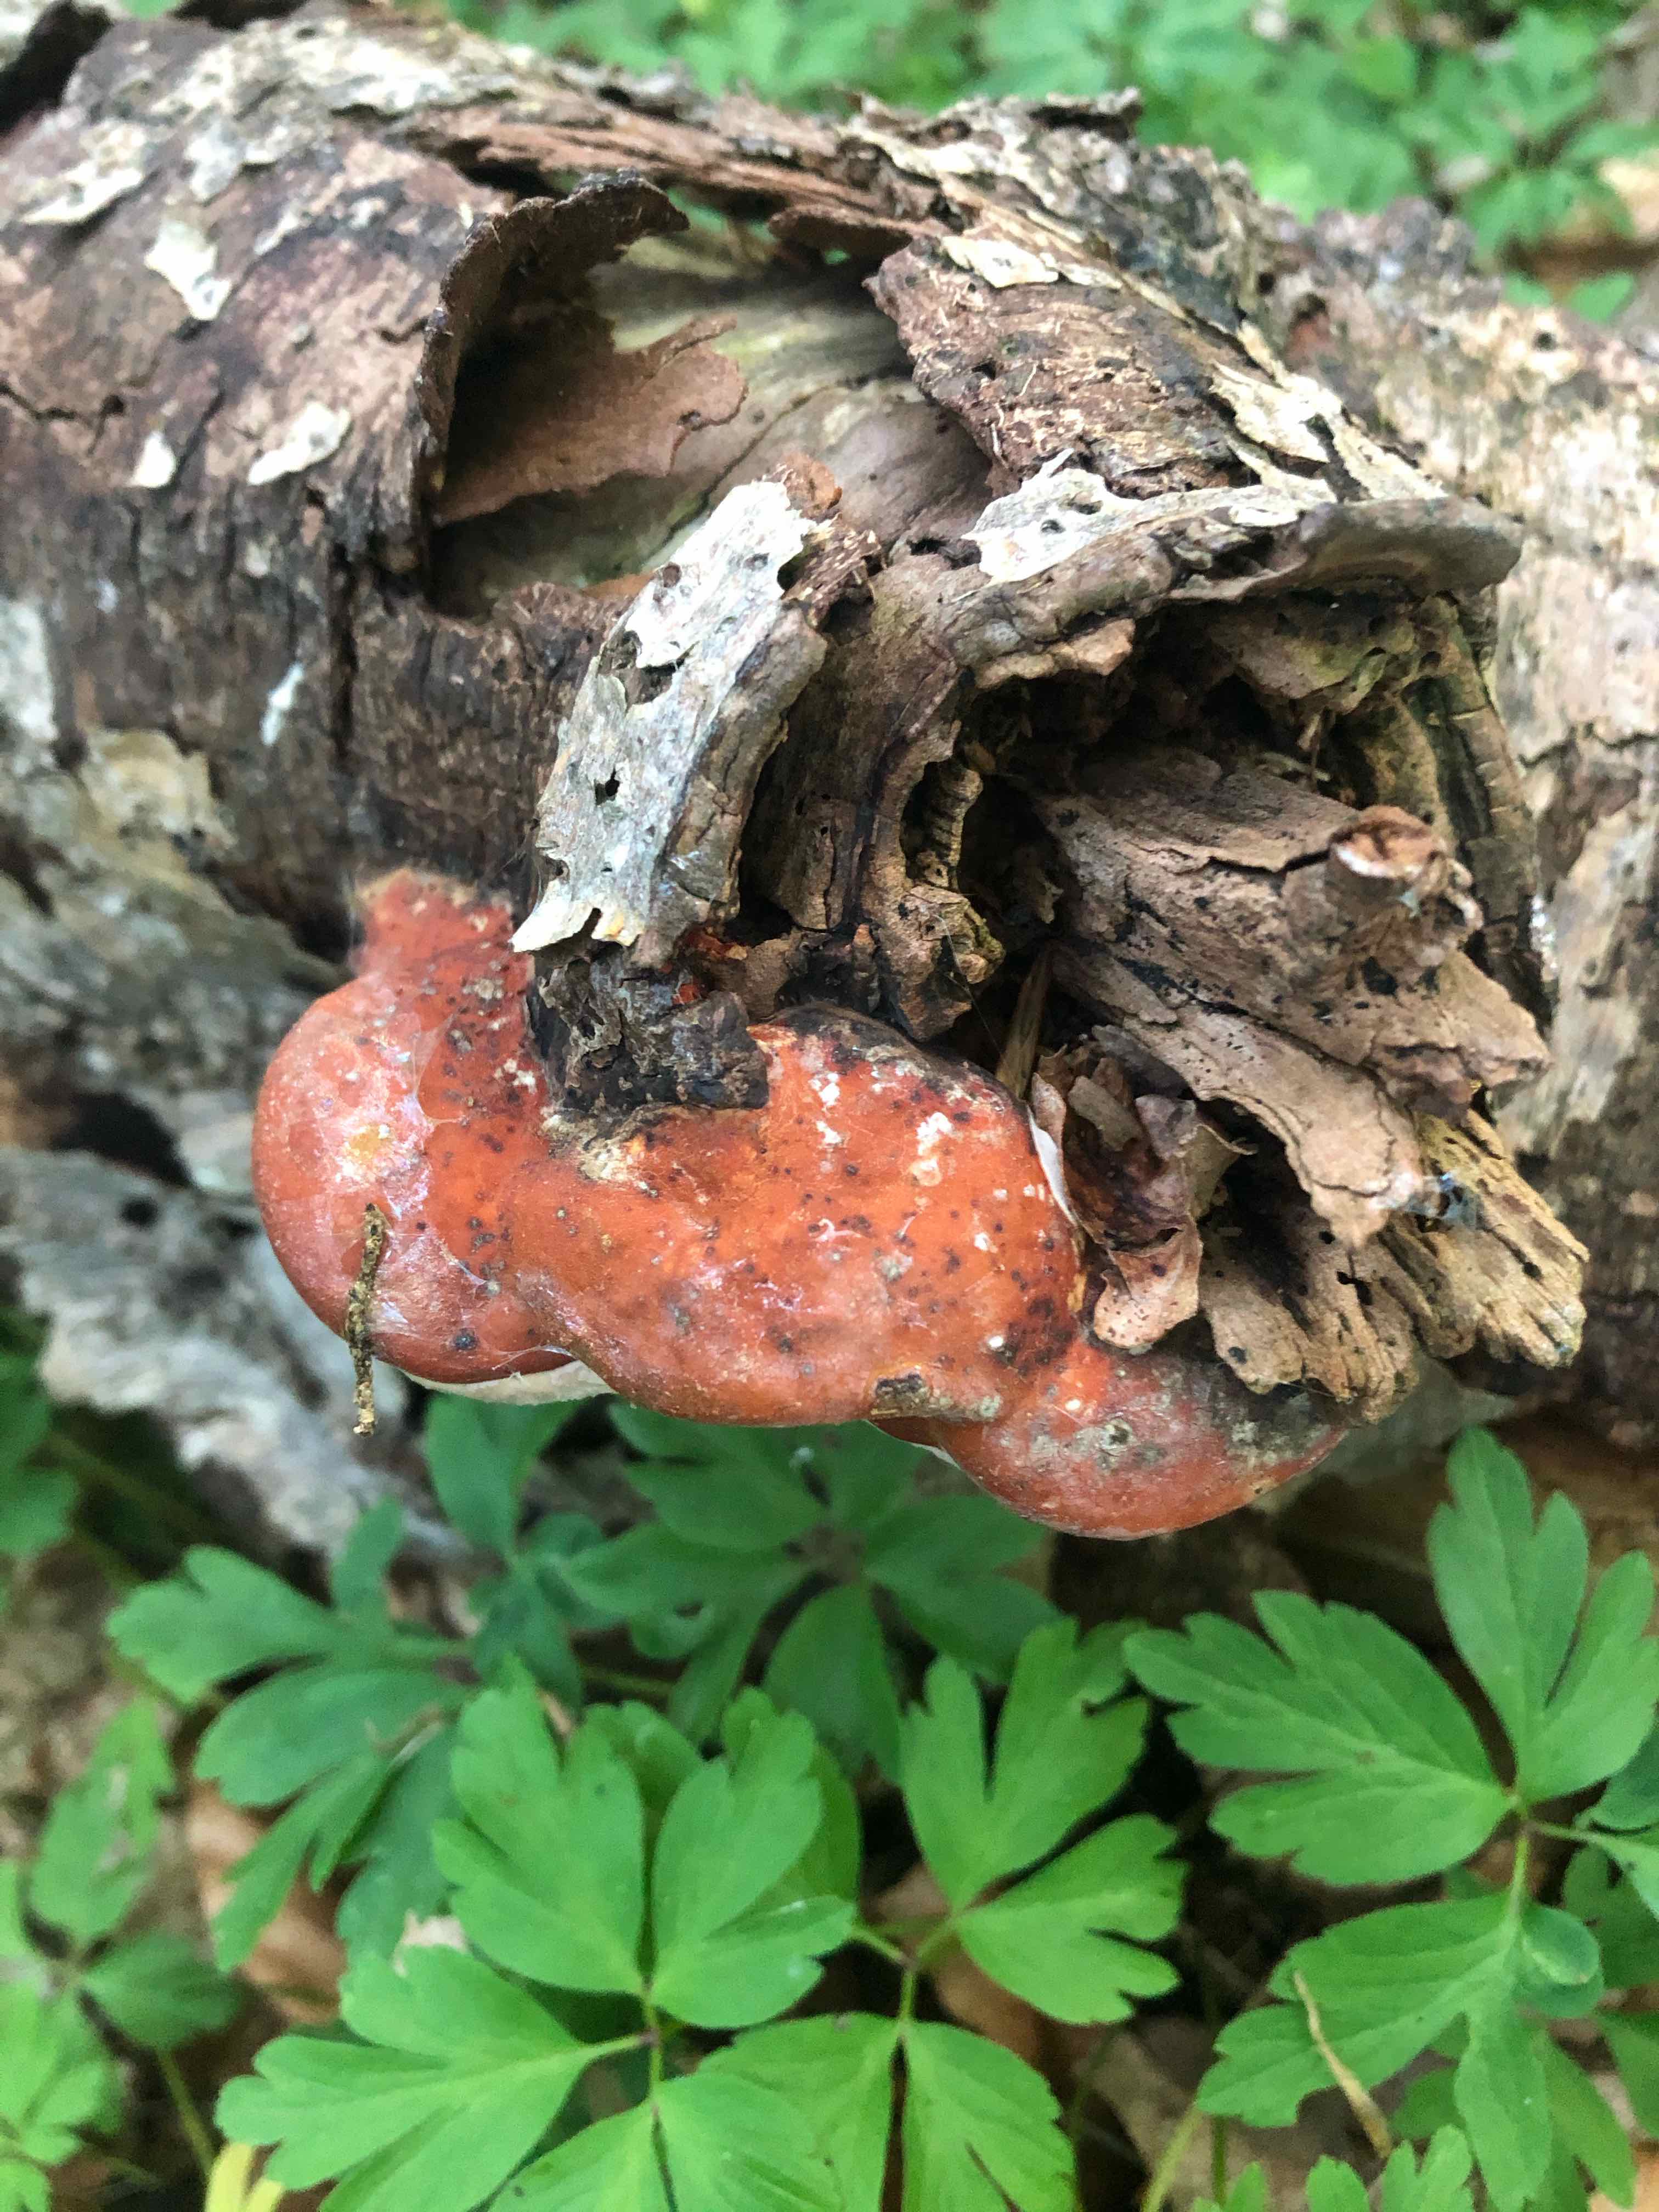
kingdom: Fungi
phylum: Basidiomycota
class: Agaricomycetes
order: Polyporales
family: Fomitopsidaceae
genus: Fomitopsis
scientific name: Fomitopsis pinicola
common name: randbæltet hovporesvamp
